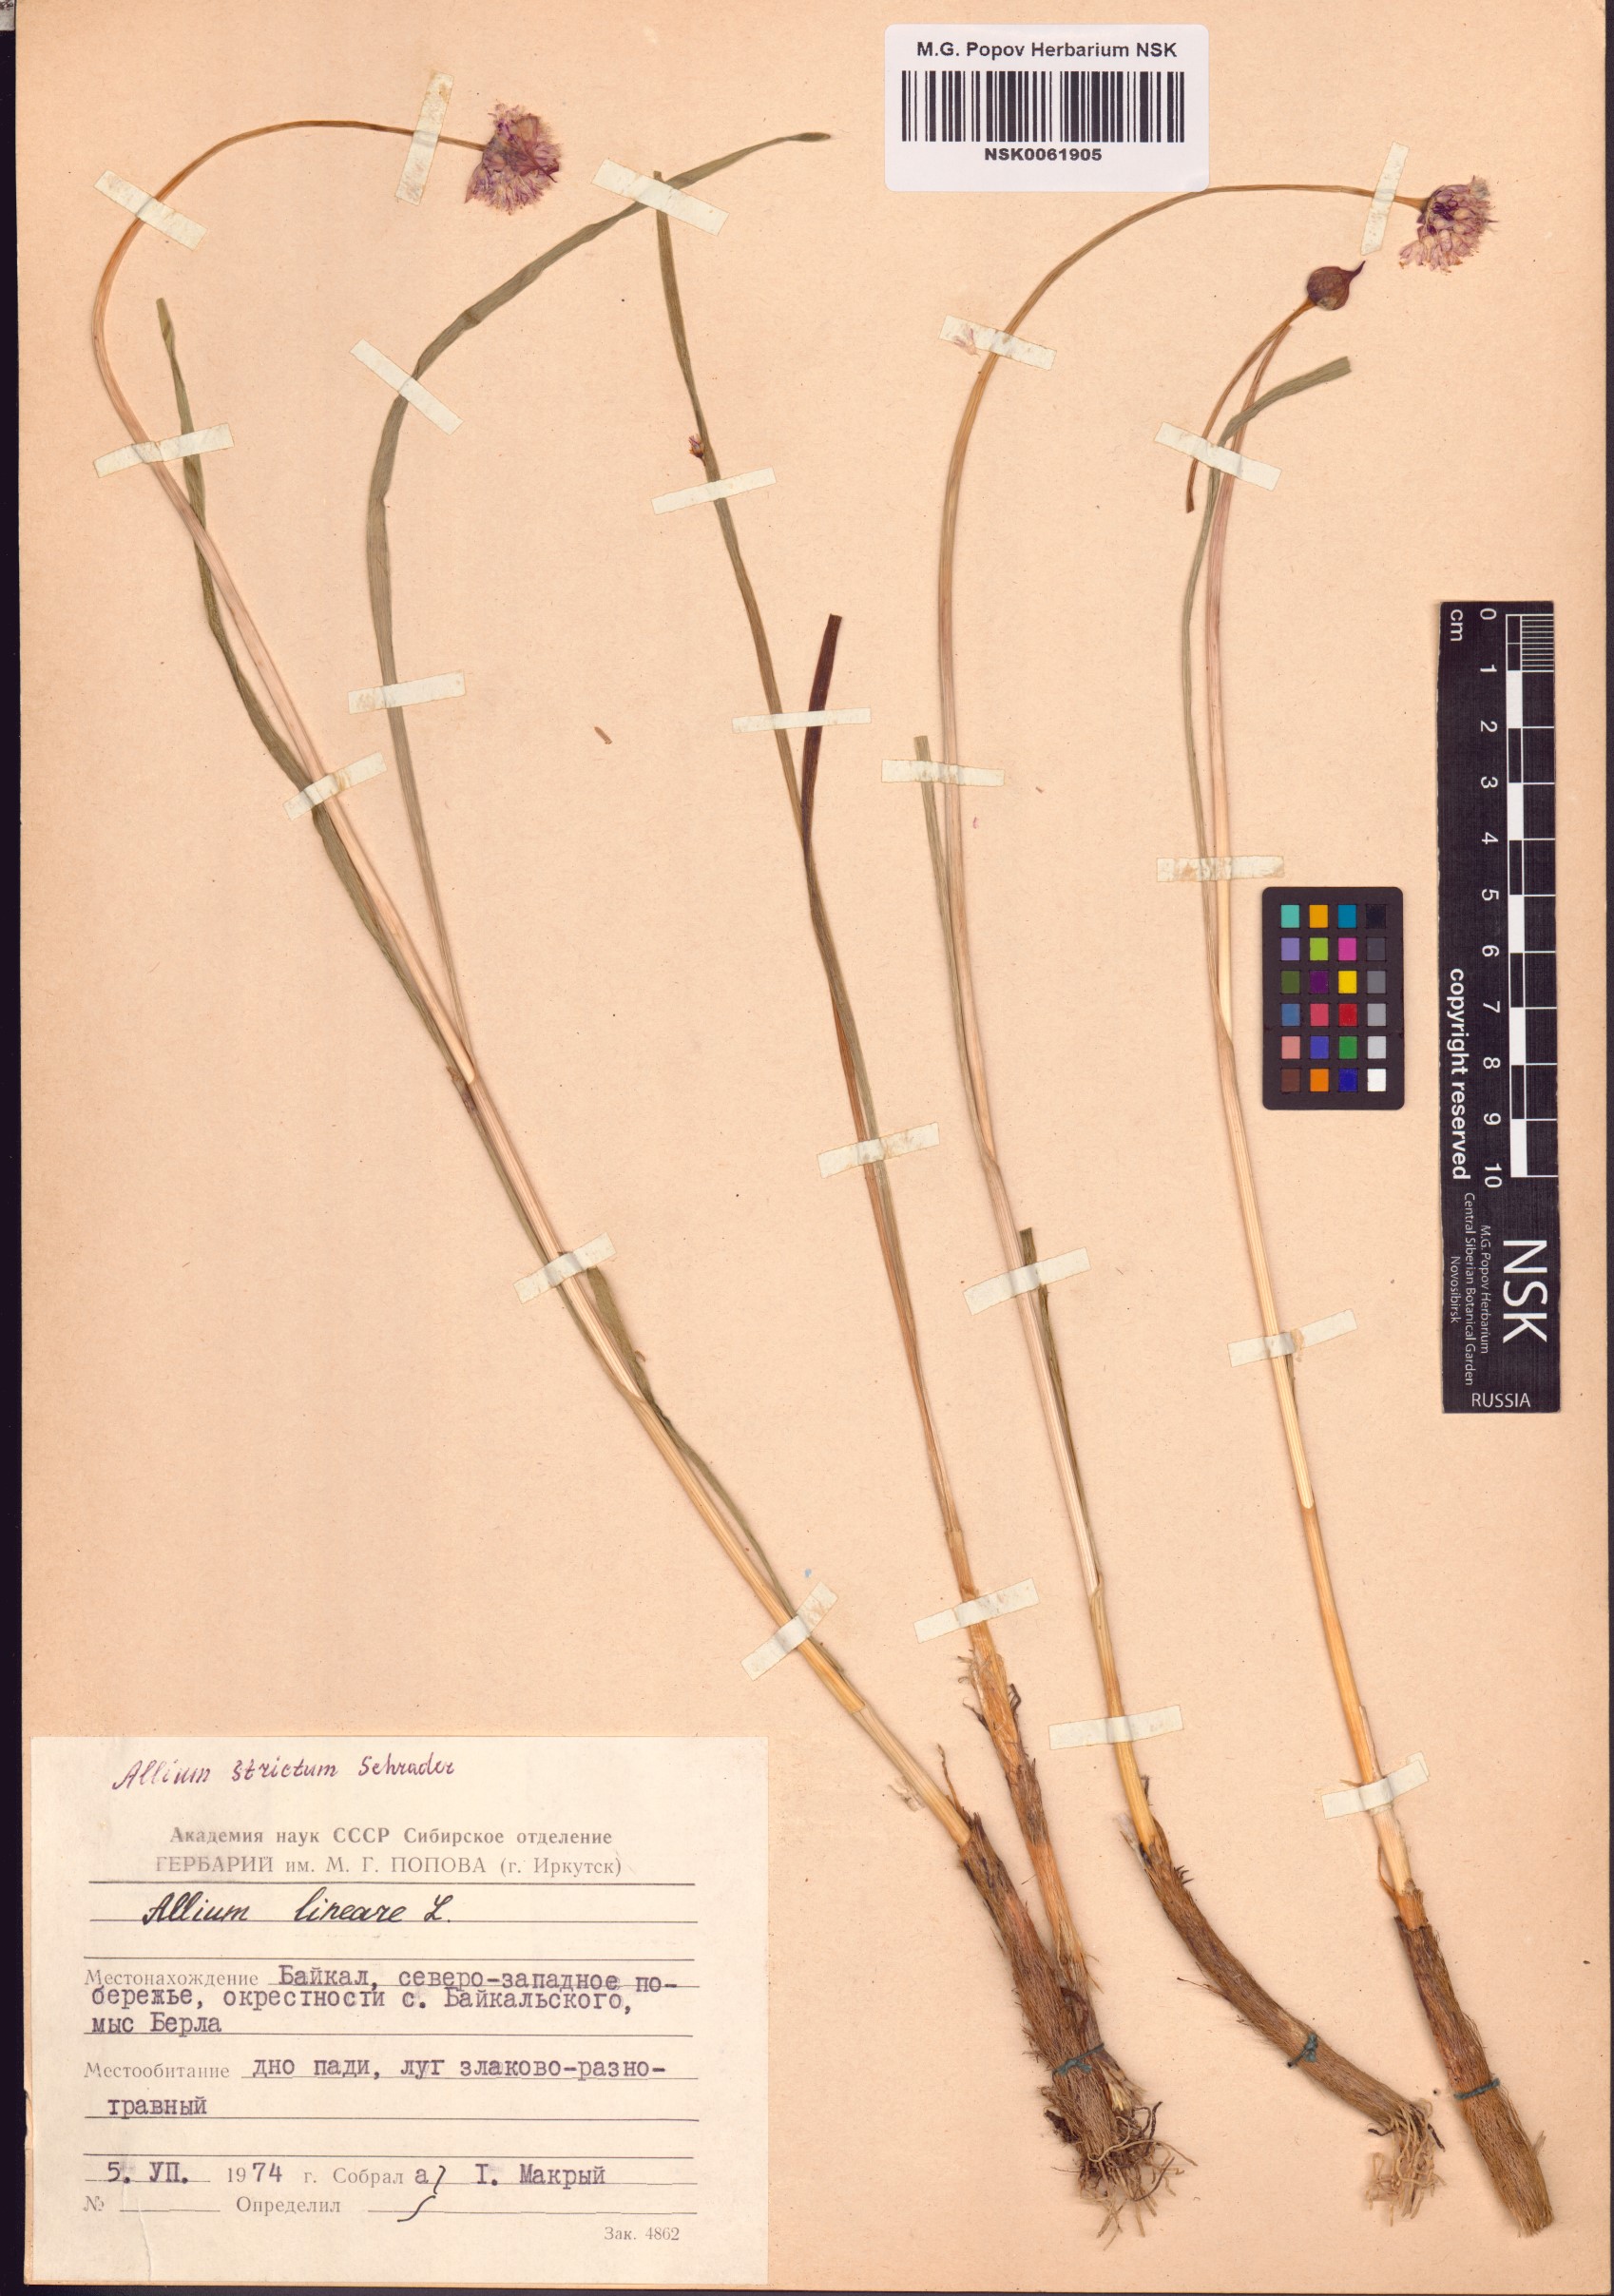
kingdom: Plantae
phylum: Tracheophyta
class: Liliopsida
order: Asparagales
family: Amaryllidaceae
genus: Allium
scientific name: Allium strictum
